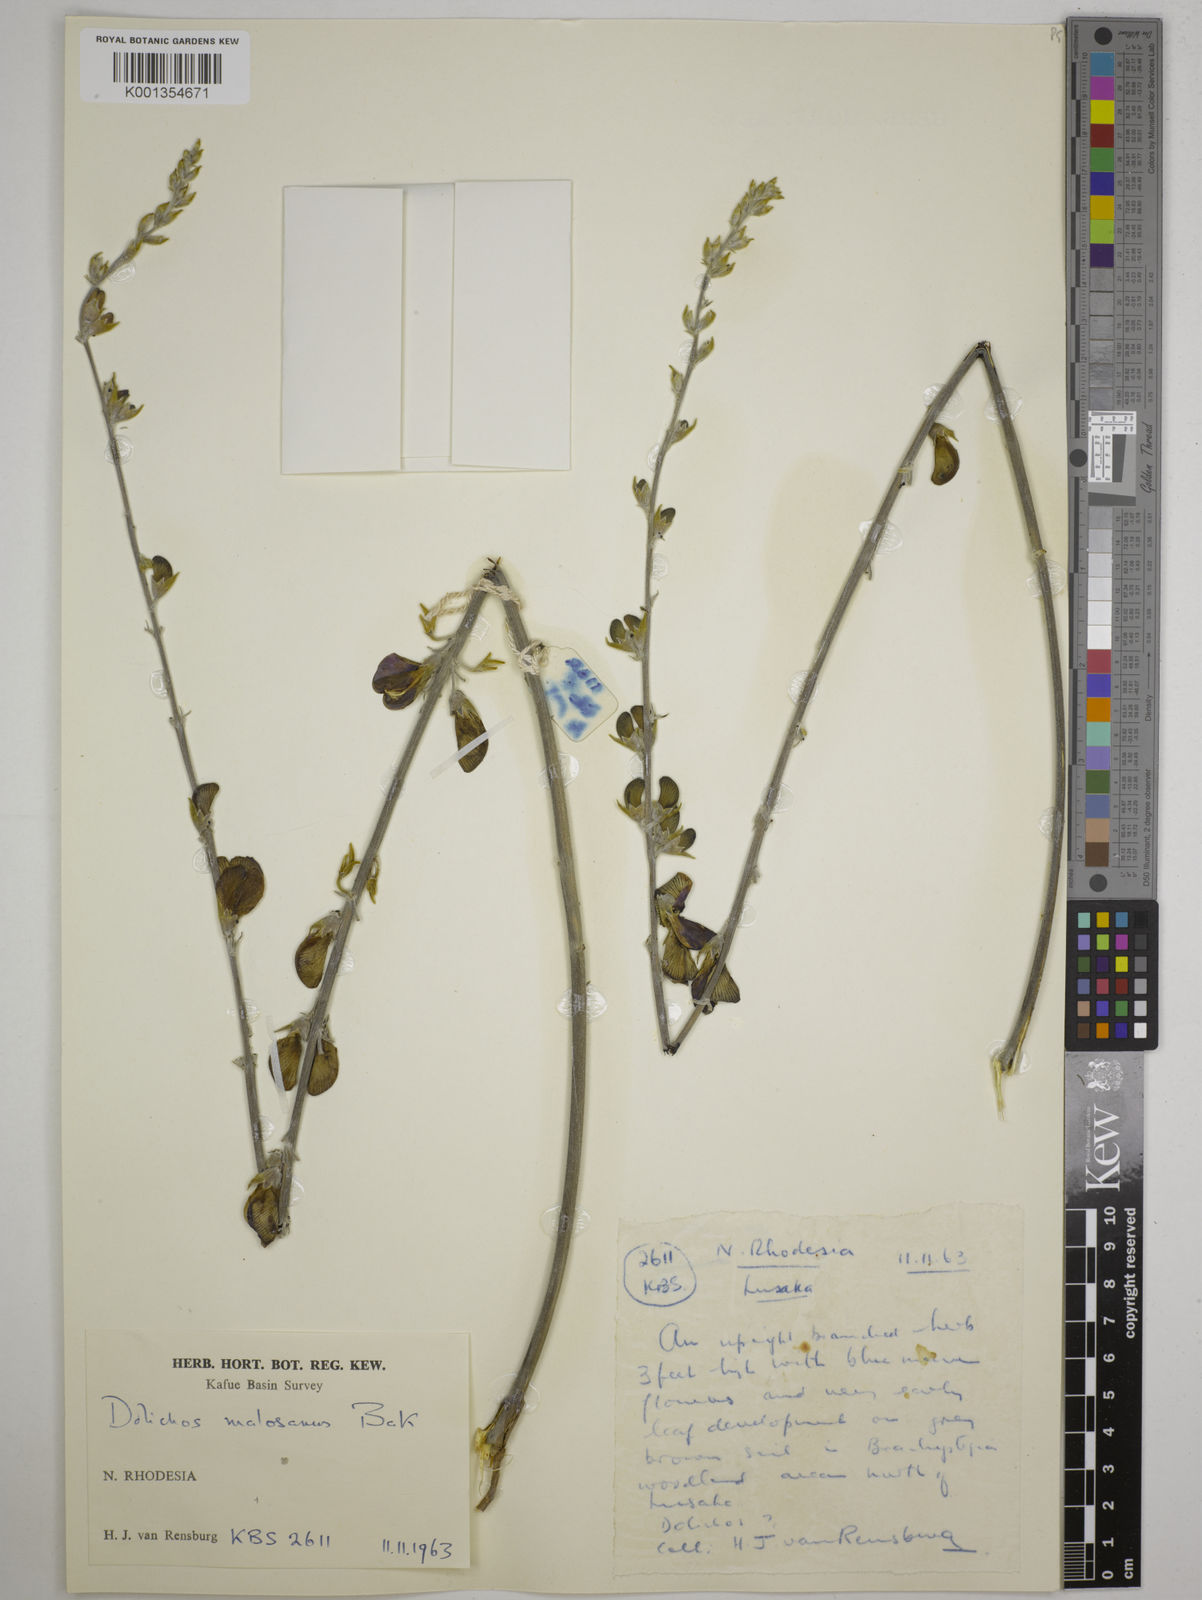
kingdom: Plantae
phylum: Tracheophyta
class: Magnoliopsida
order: Fabales
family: Fabaceae
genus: Dolichos
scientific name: Dolichos kilimandscharicus
